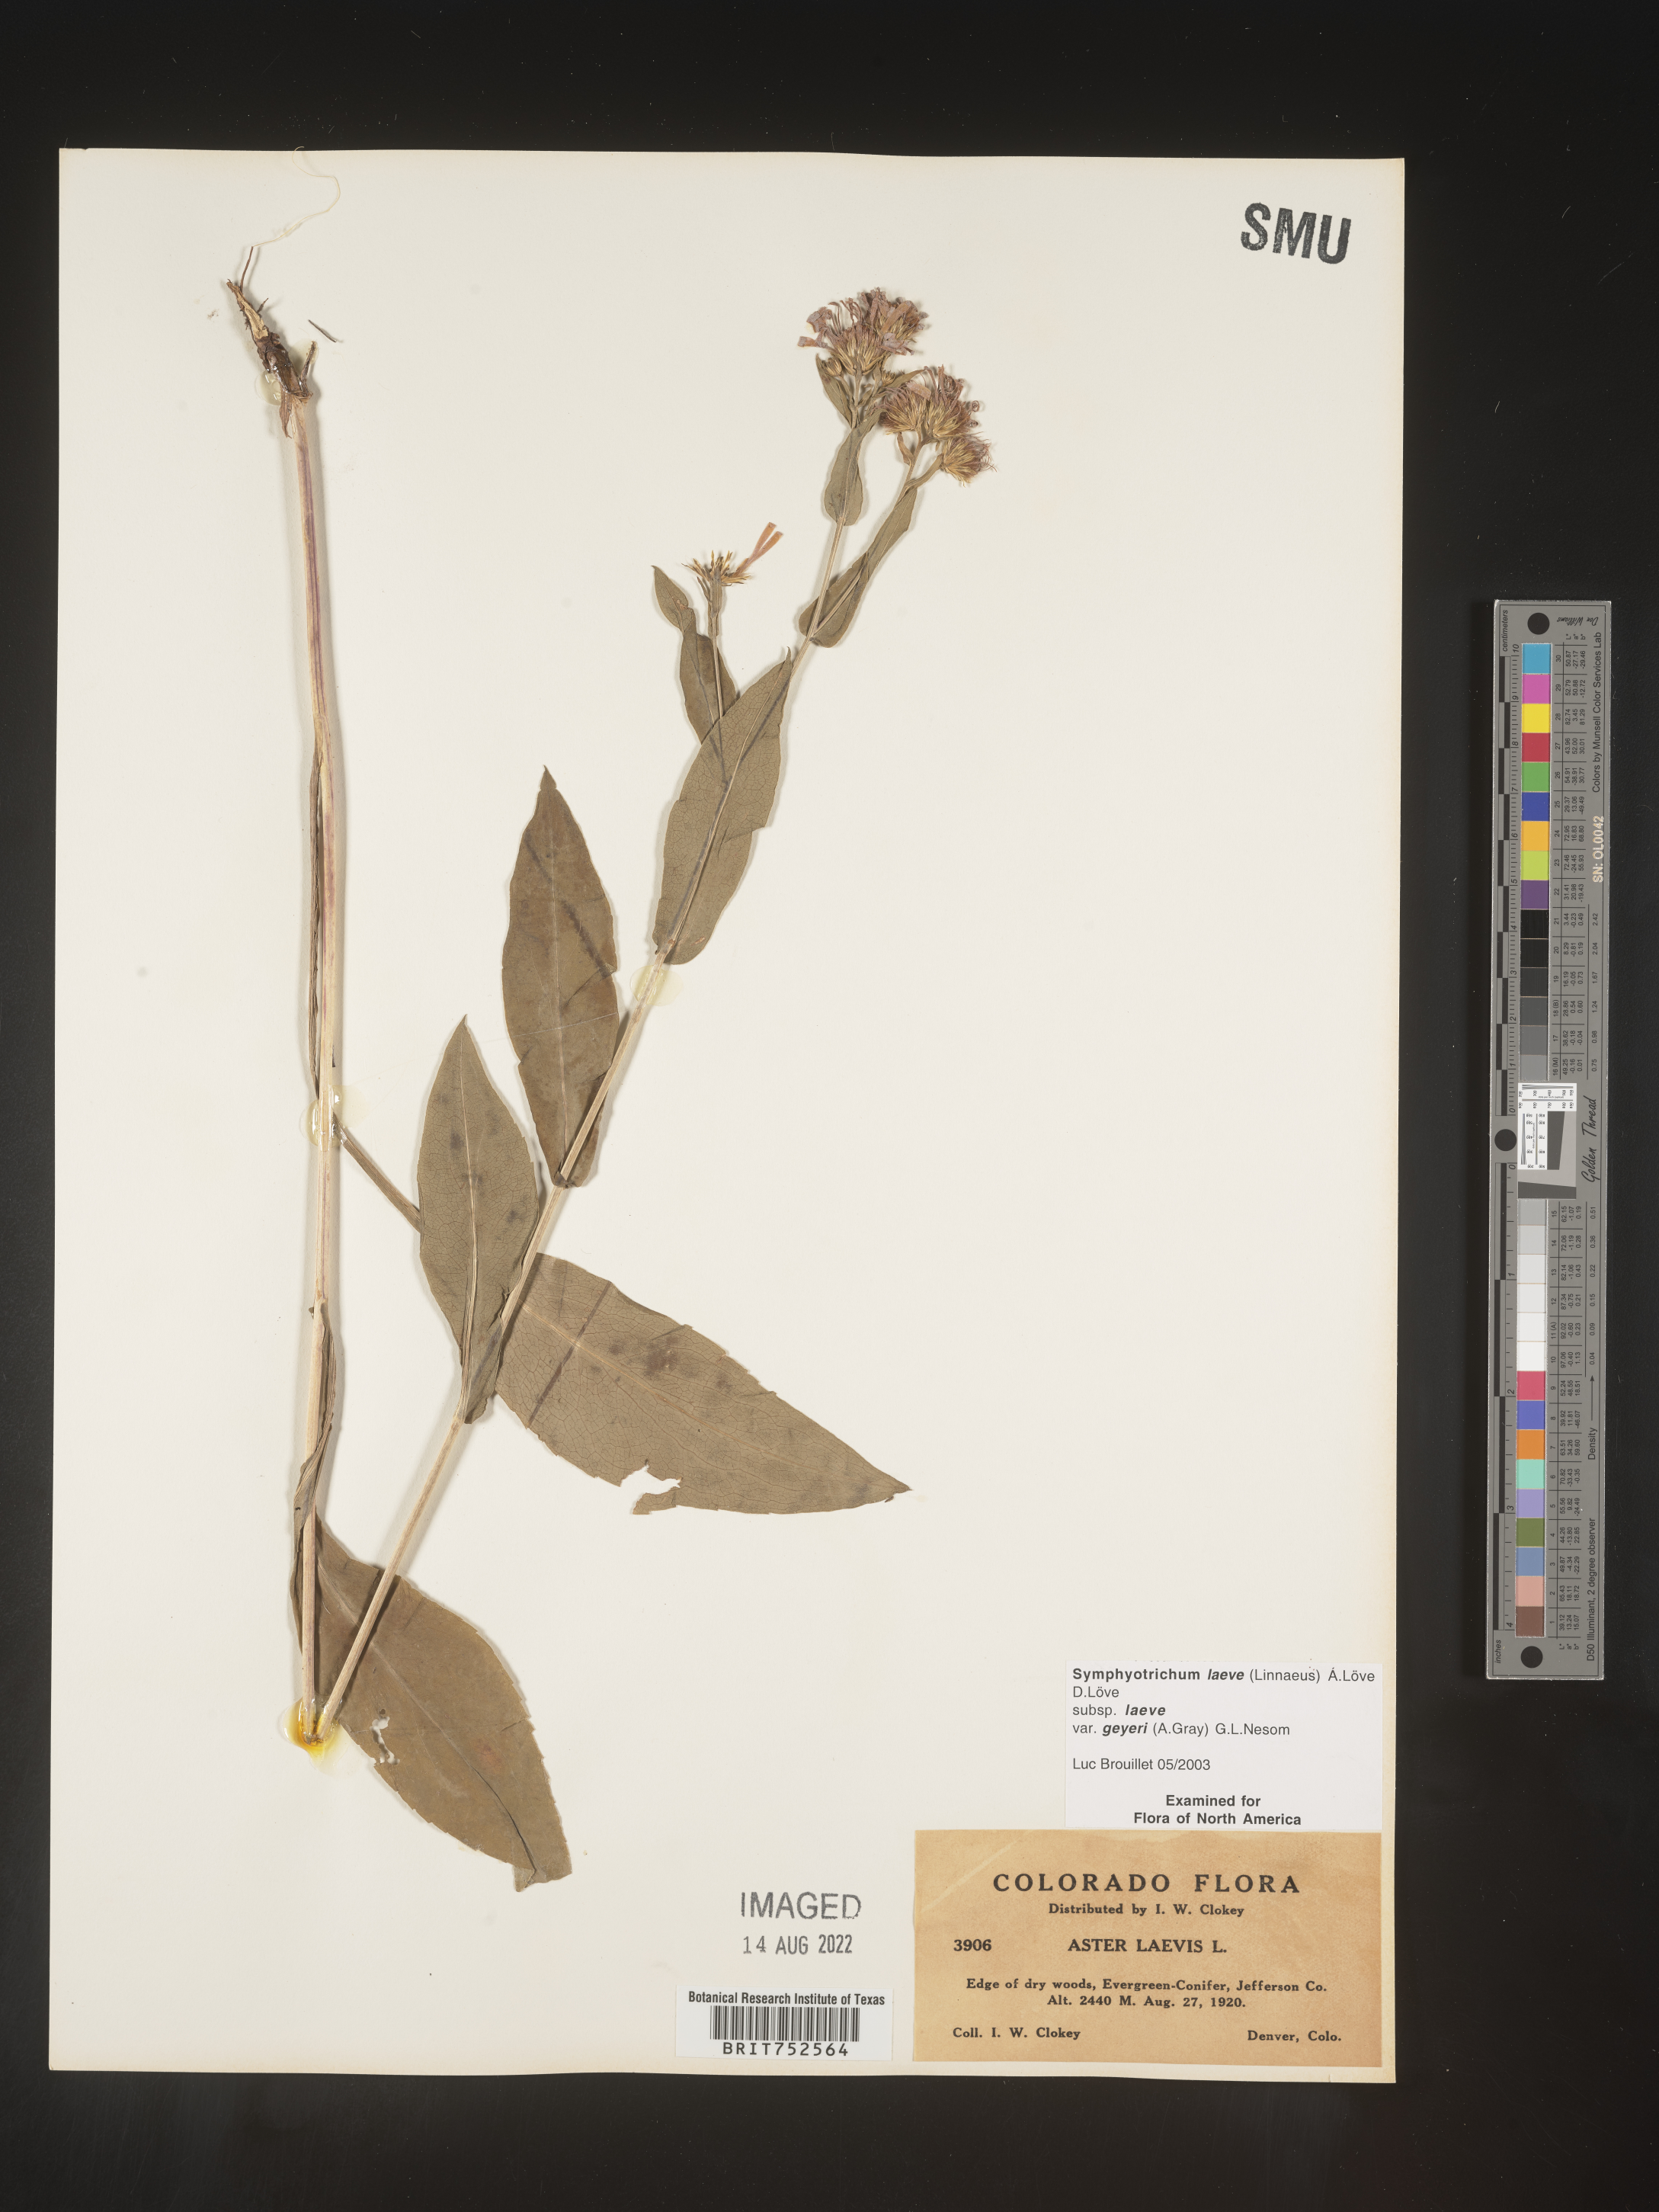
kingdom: Plantae
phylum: Tracheophyta
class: Magnoliopsida
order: Asterales
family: Asteraceae
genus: Symphyotrichum
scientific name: Symphyotrichum laeve
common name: Glaucous aster
